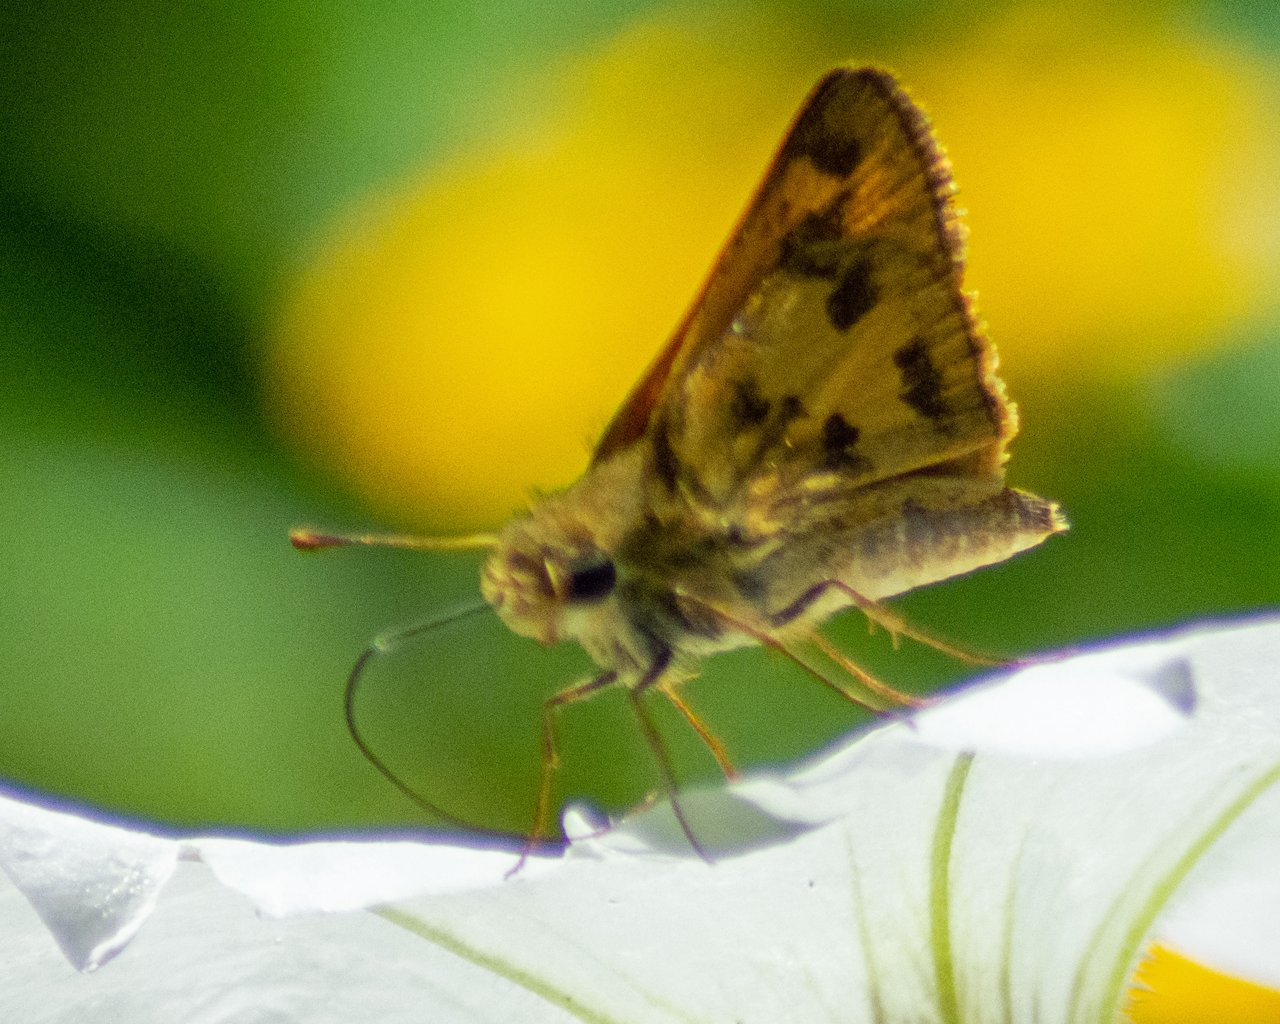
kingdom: Animalia
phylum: Arthropoda
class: Insecta
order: Lepidoptera
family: Hesperiidae
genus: Polites
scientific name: Polites vibex
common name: Whirlabout
